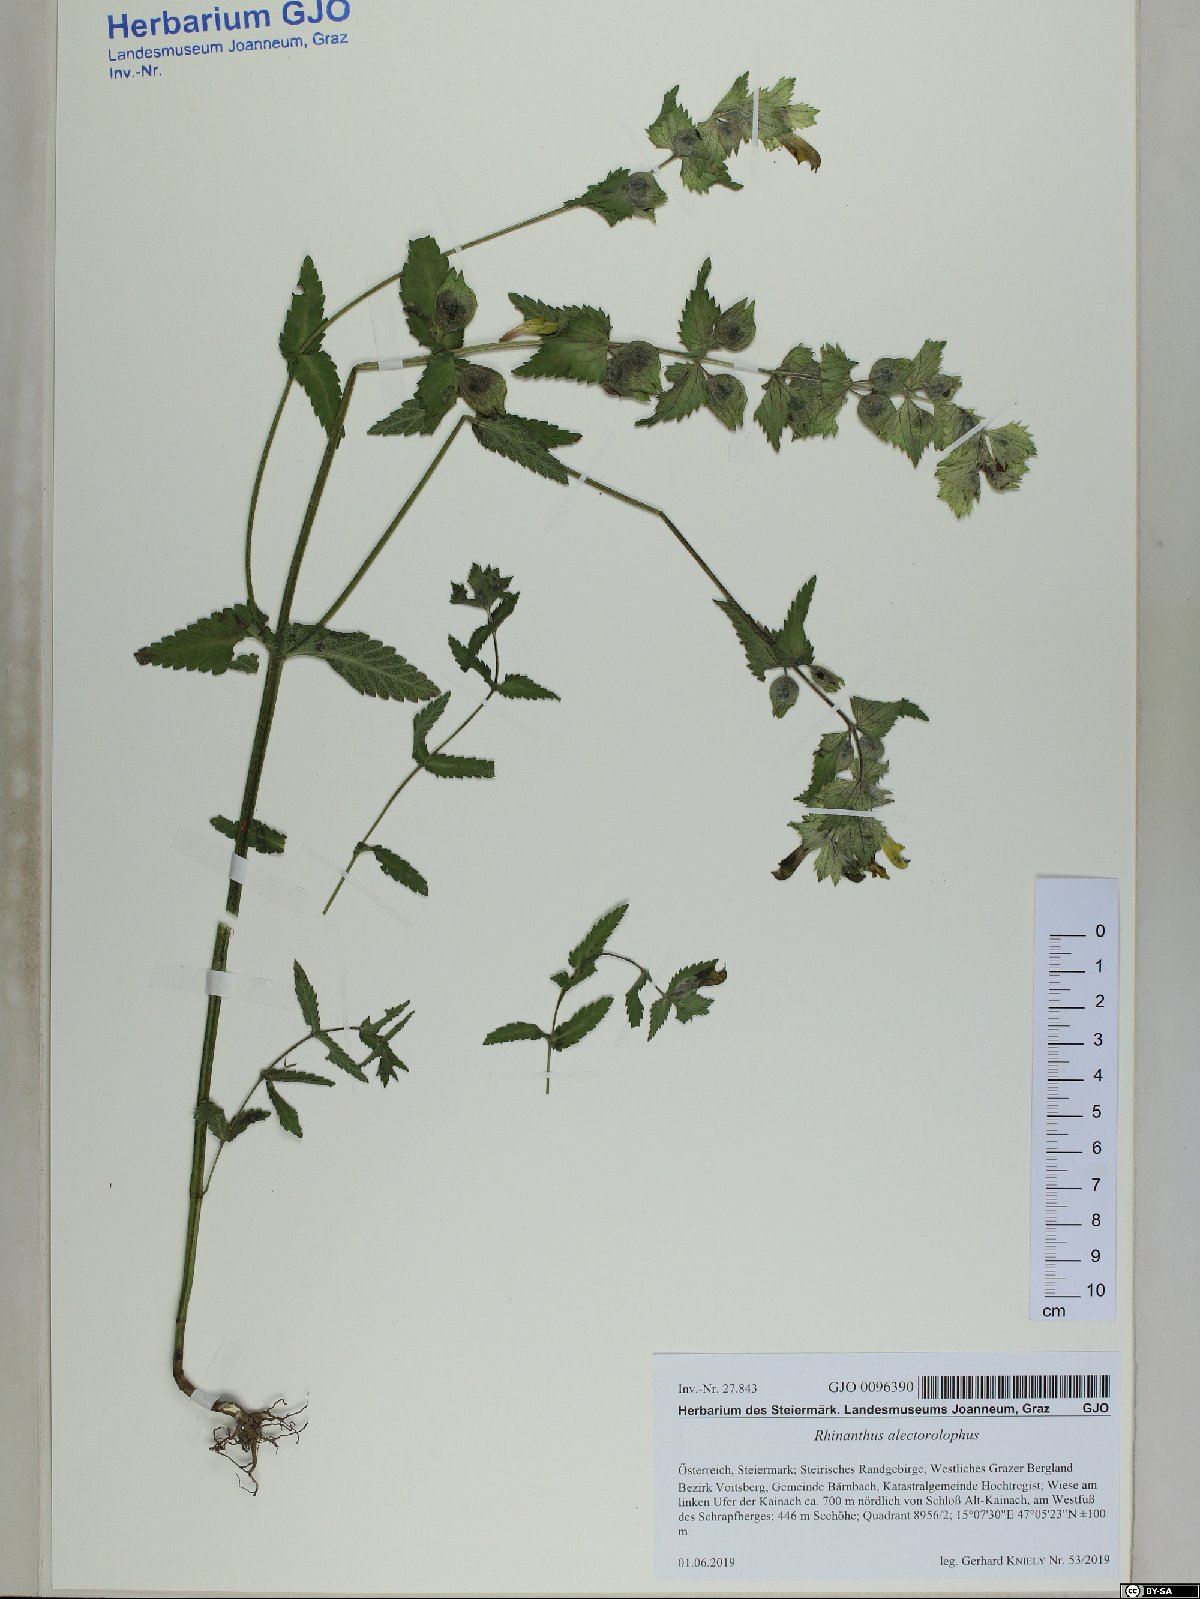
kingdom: Plantae
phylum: Tracheophyta
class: Magnoliopsida
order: Lamiales
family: Orobanchaceae
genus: Rhinanthus
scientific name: Rhinanthus alectorolophus
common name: Greater yellow-rattle
